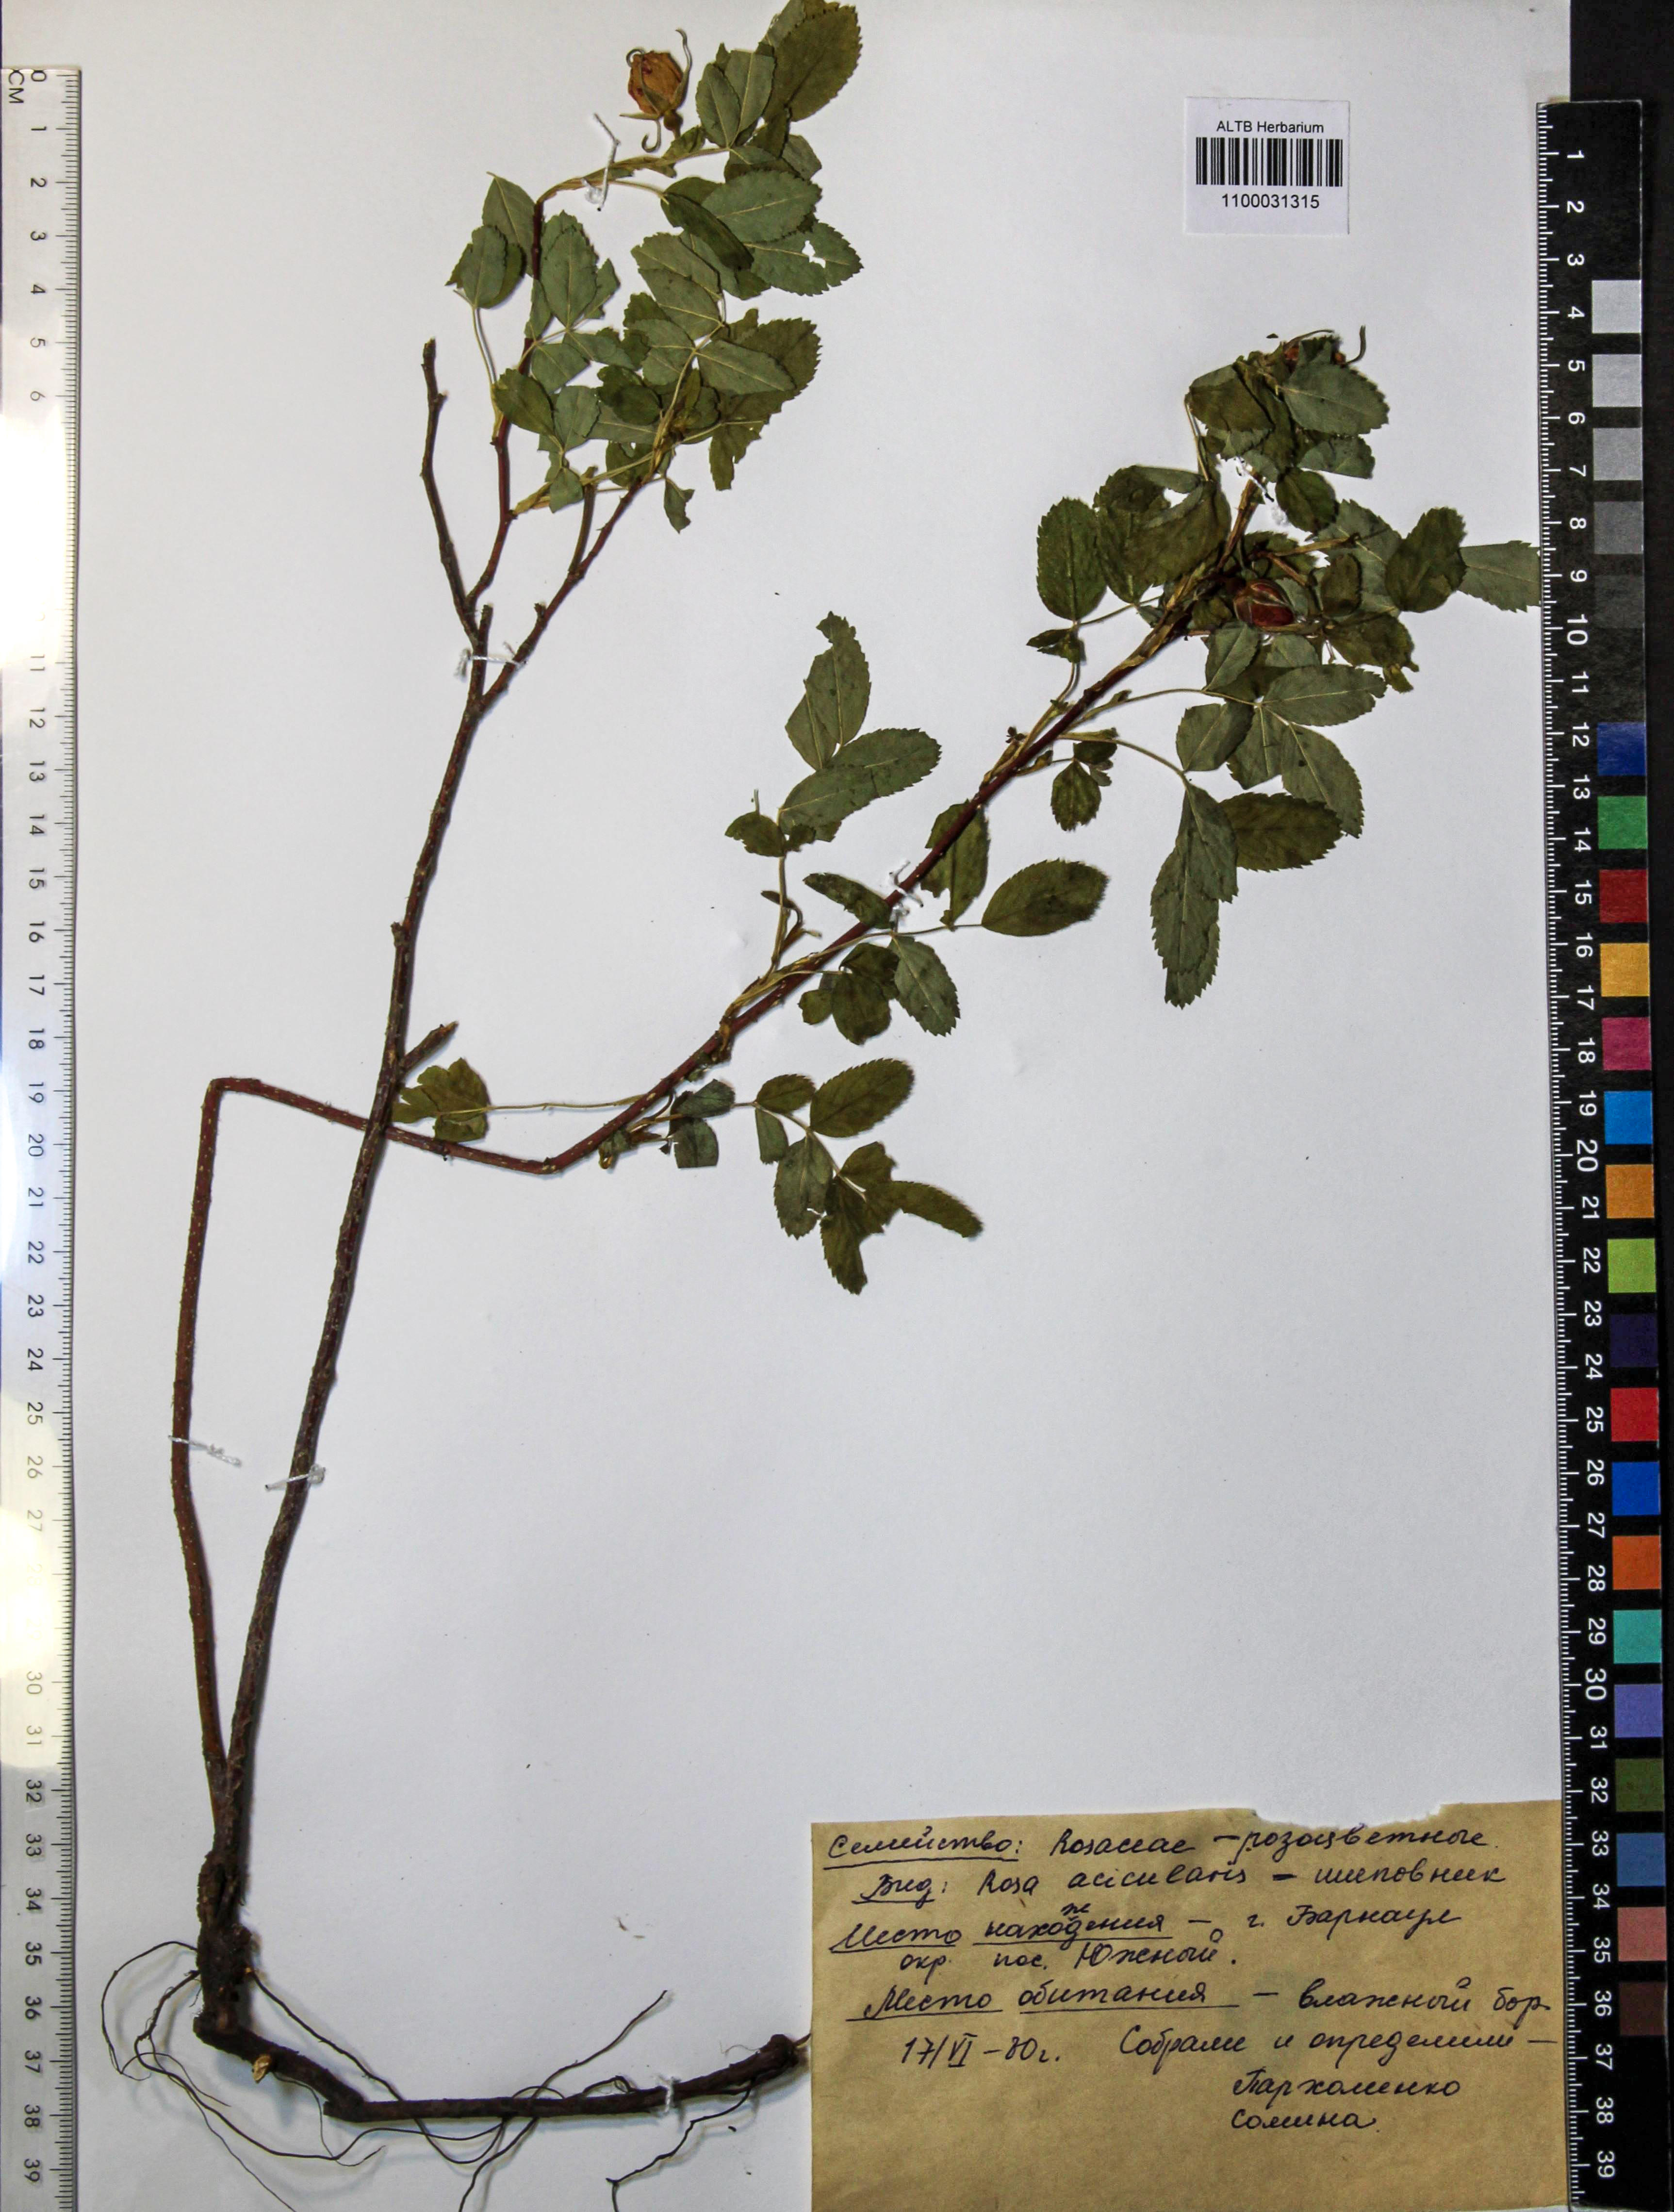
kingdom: Plantae
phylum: Tracheophyta
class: Magnoliopsida
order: Rosales
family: Rosaceae
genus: Rosa
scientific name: Rosa acicularis
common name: Prickly rose
